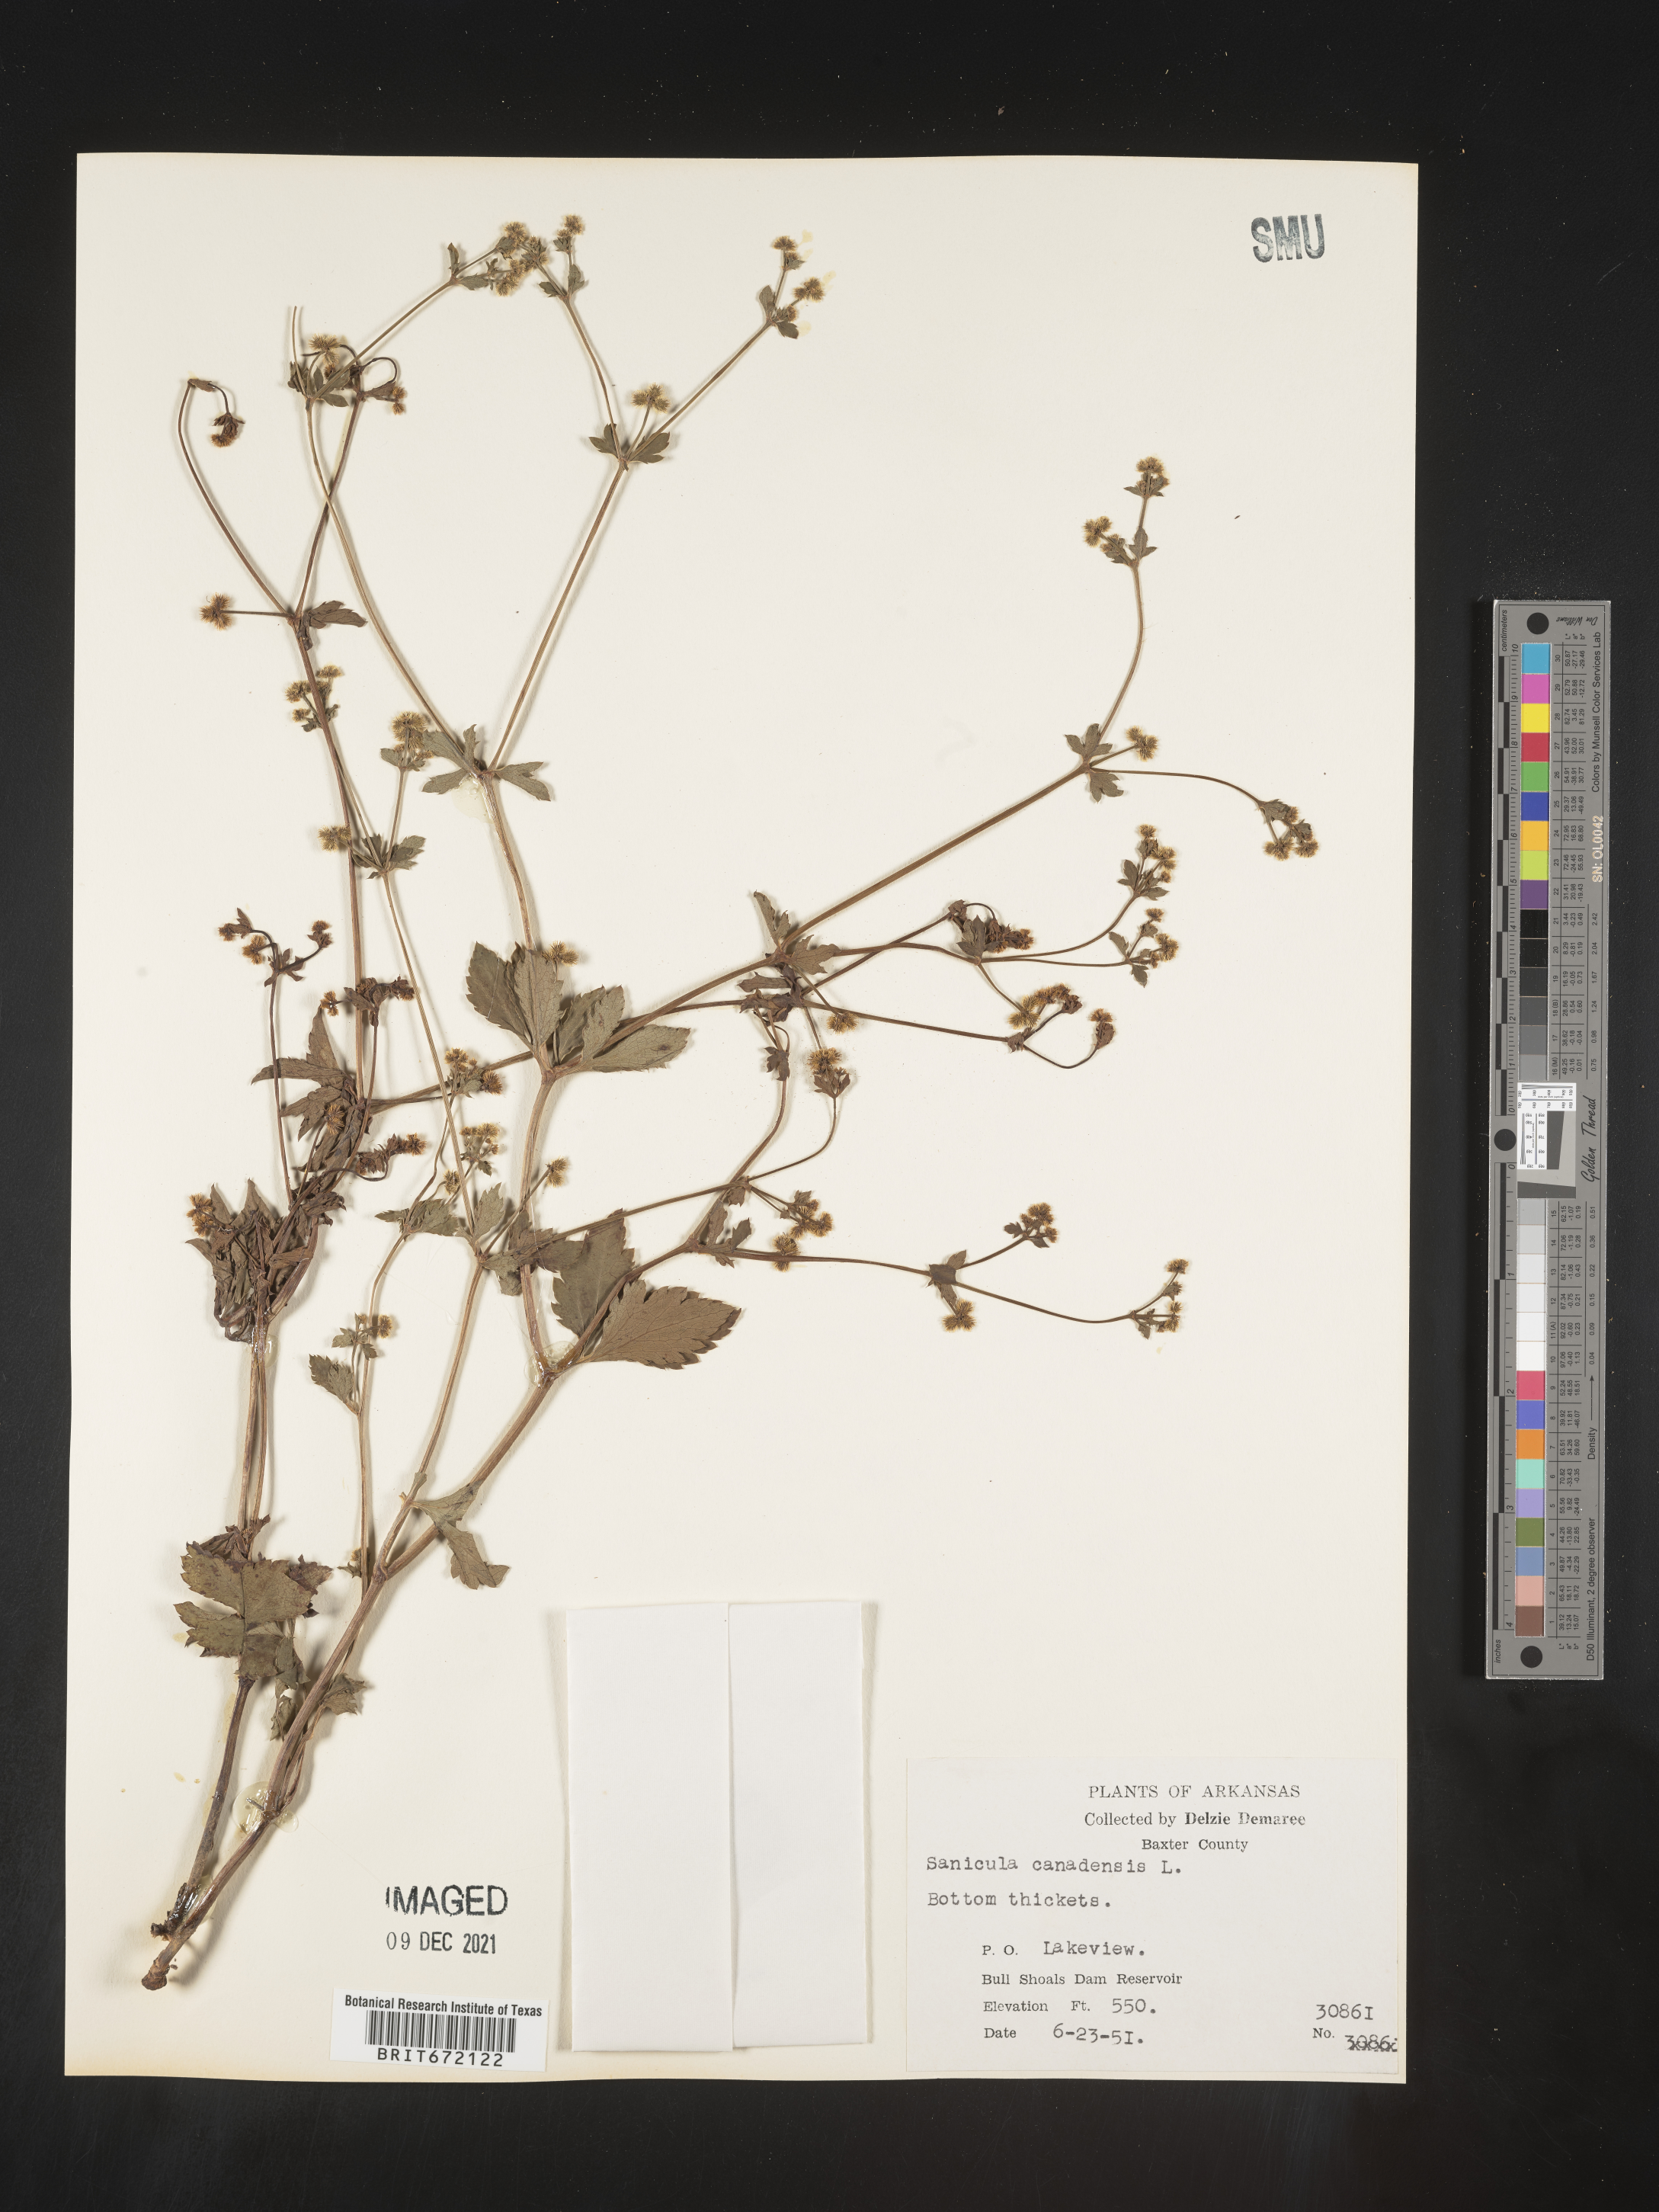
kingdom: Plantae
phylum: Tracheophyta
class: Magnoliopsida
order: Apiales
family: Apiaceae
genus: Sanicula
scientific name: Sanicula canadensis
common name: Canada sanicle
